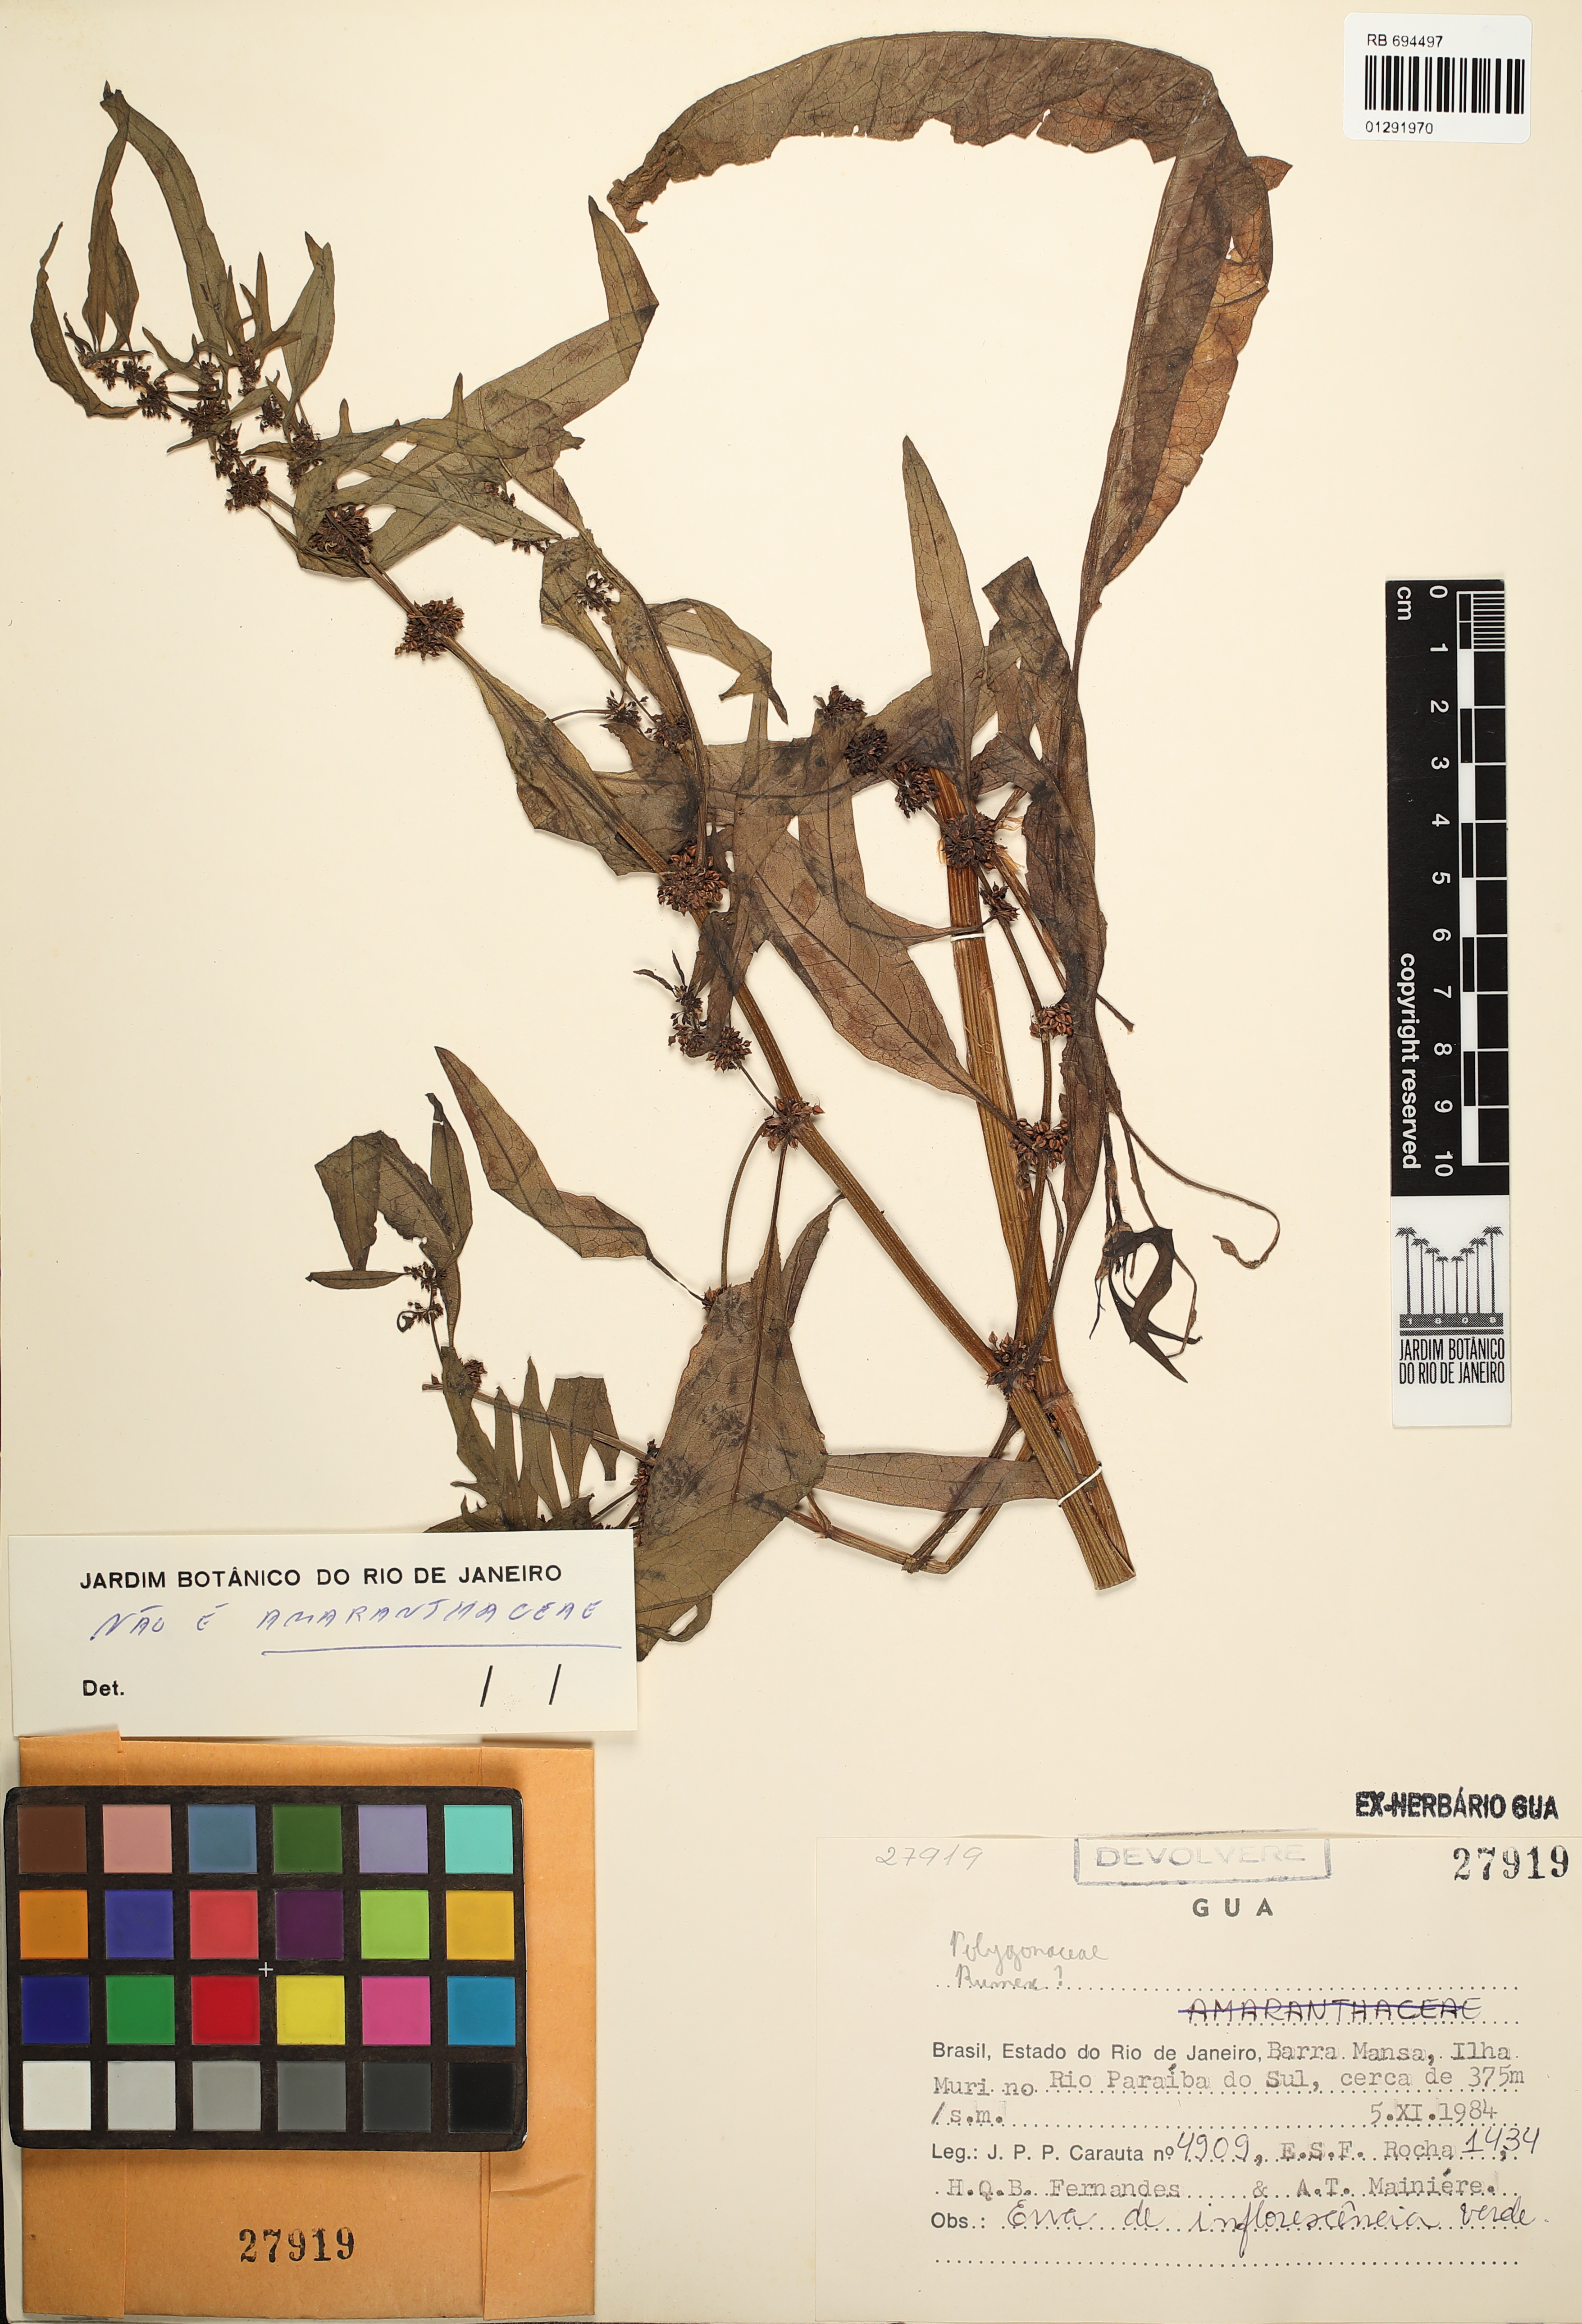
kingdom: Plantae
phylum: Tracheophyta
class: Magnoliopsida
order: Caryophyllales
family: Polygonaceae
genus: Rumex
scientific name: Rumex
